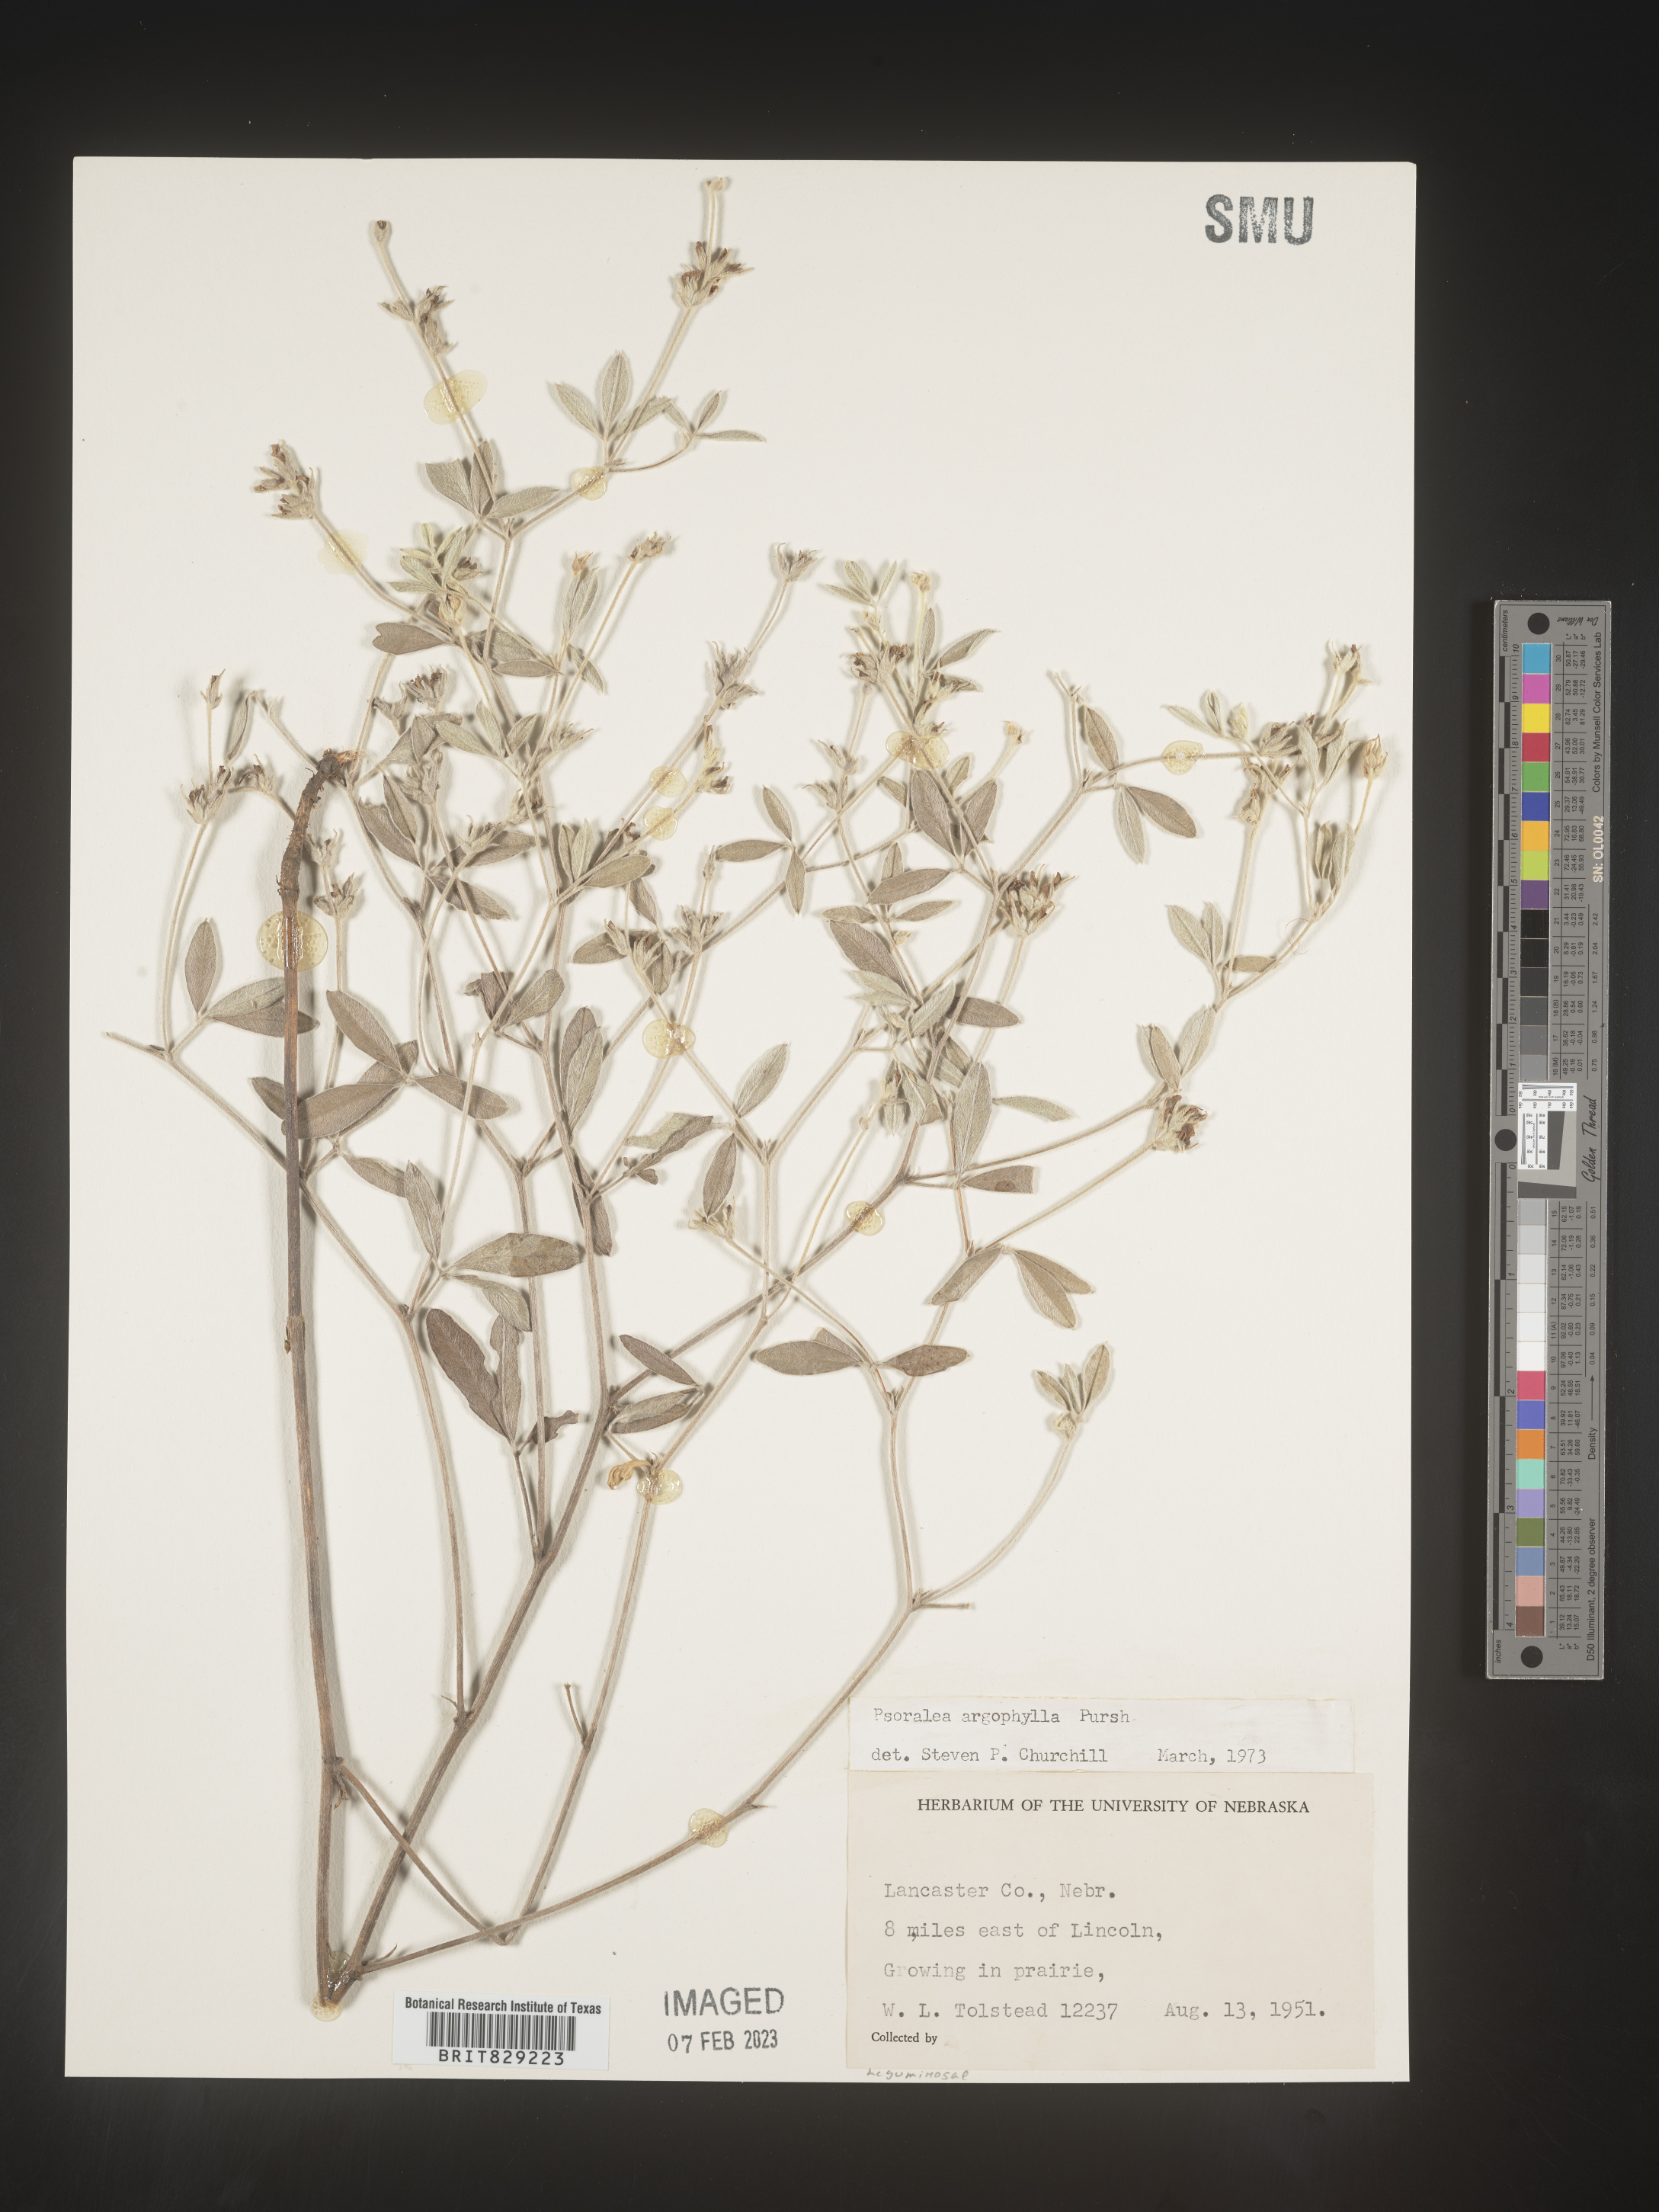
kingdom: Plantae
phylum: Tracheophyta
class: Magnoliopsida
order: Fabales
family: Fabaceae
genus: Pediomelum
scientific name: Pediomelum argophyllum
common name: Silver-leaved indian breadroot
